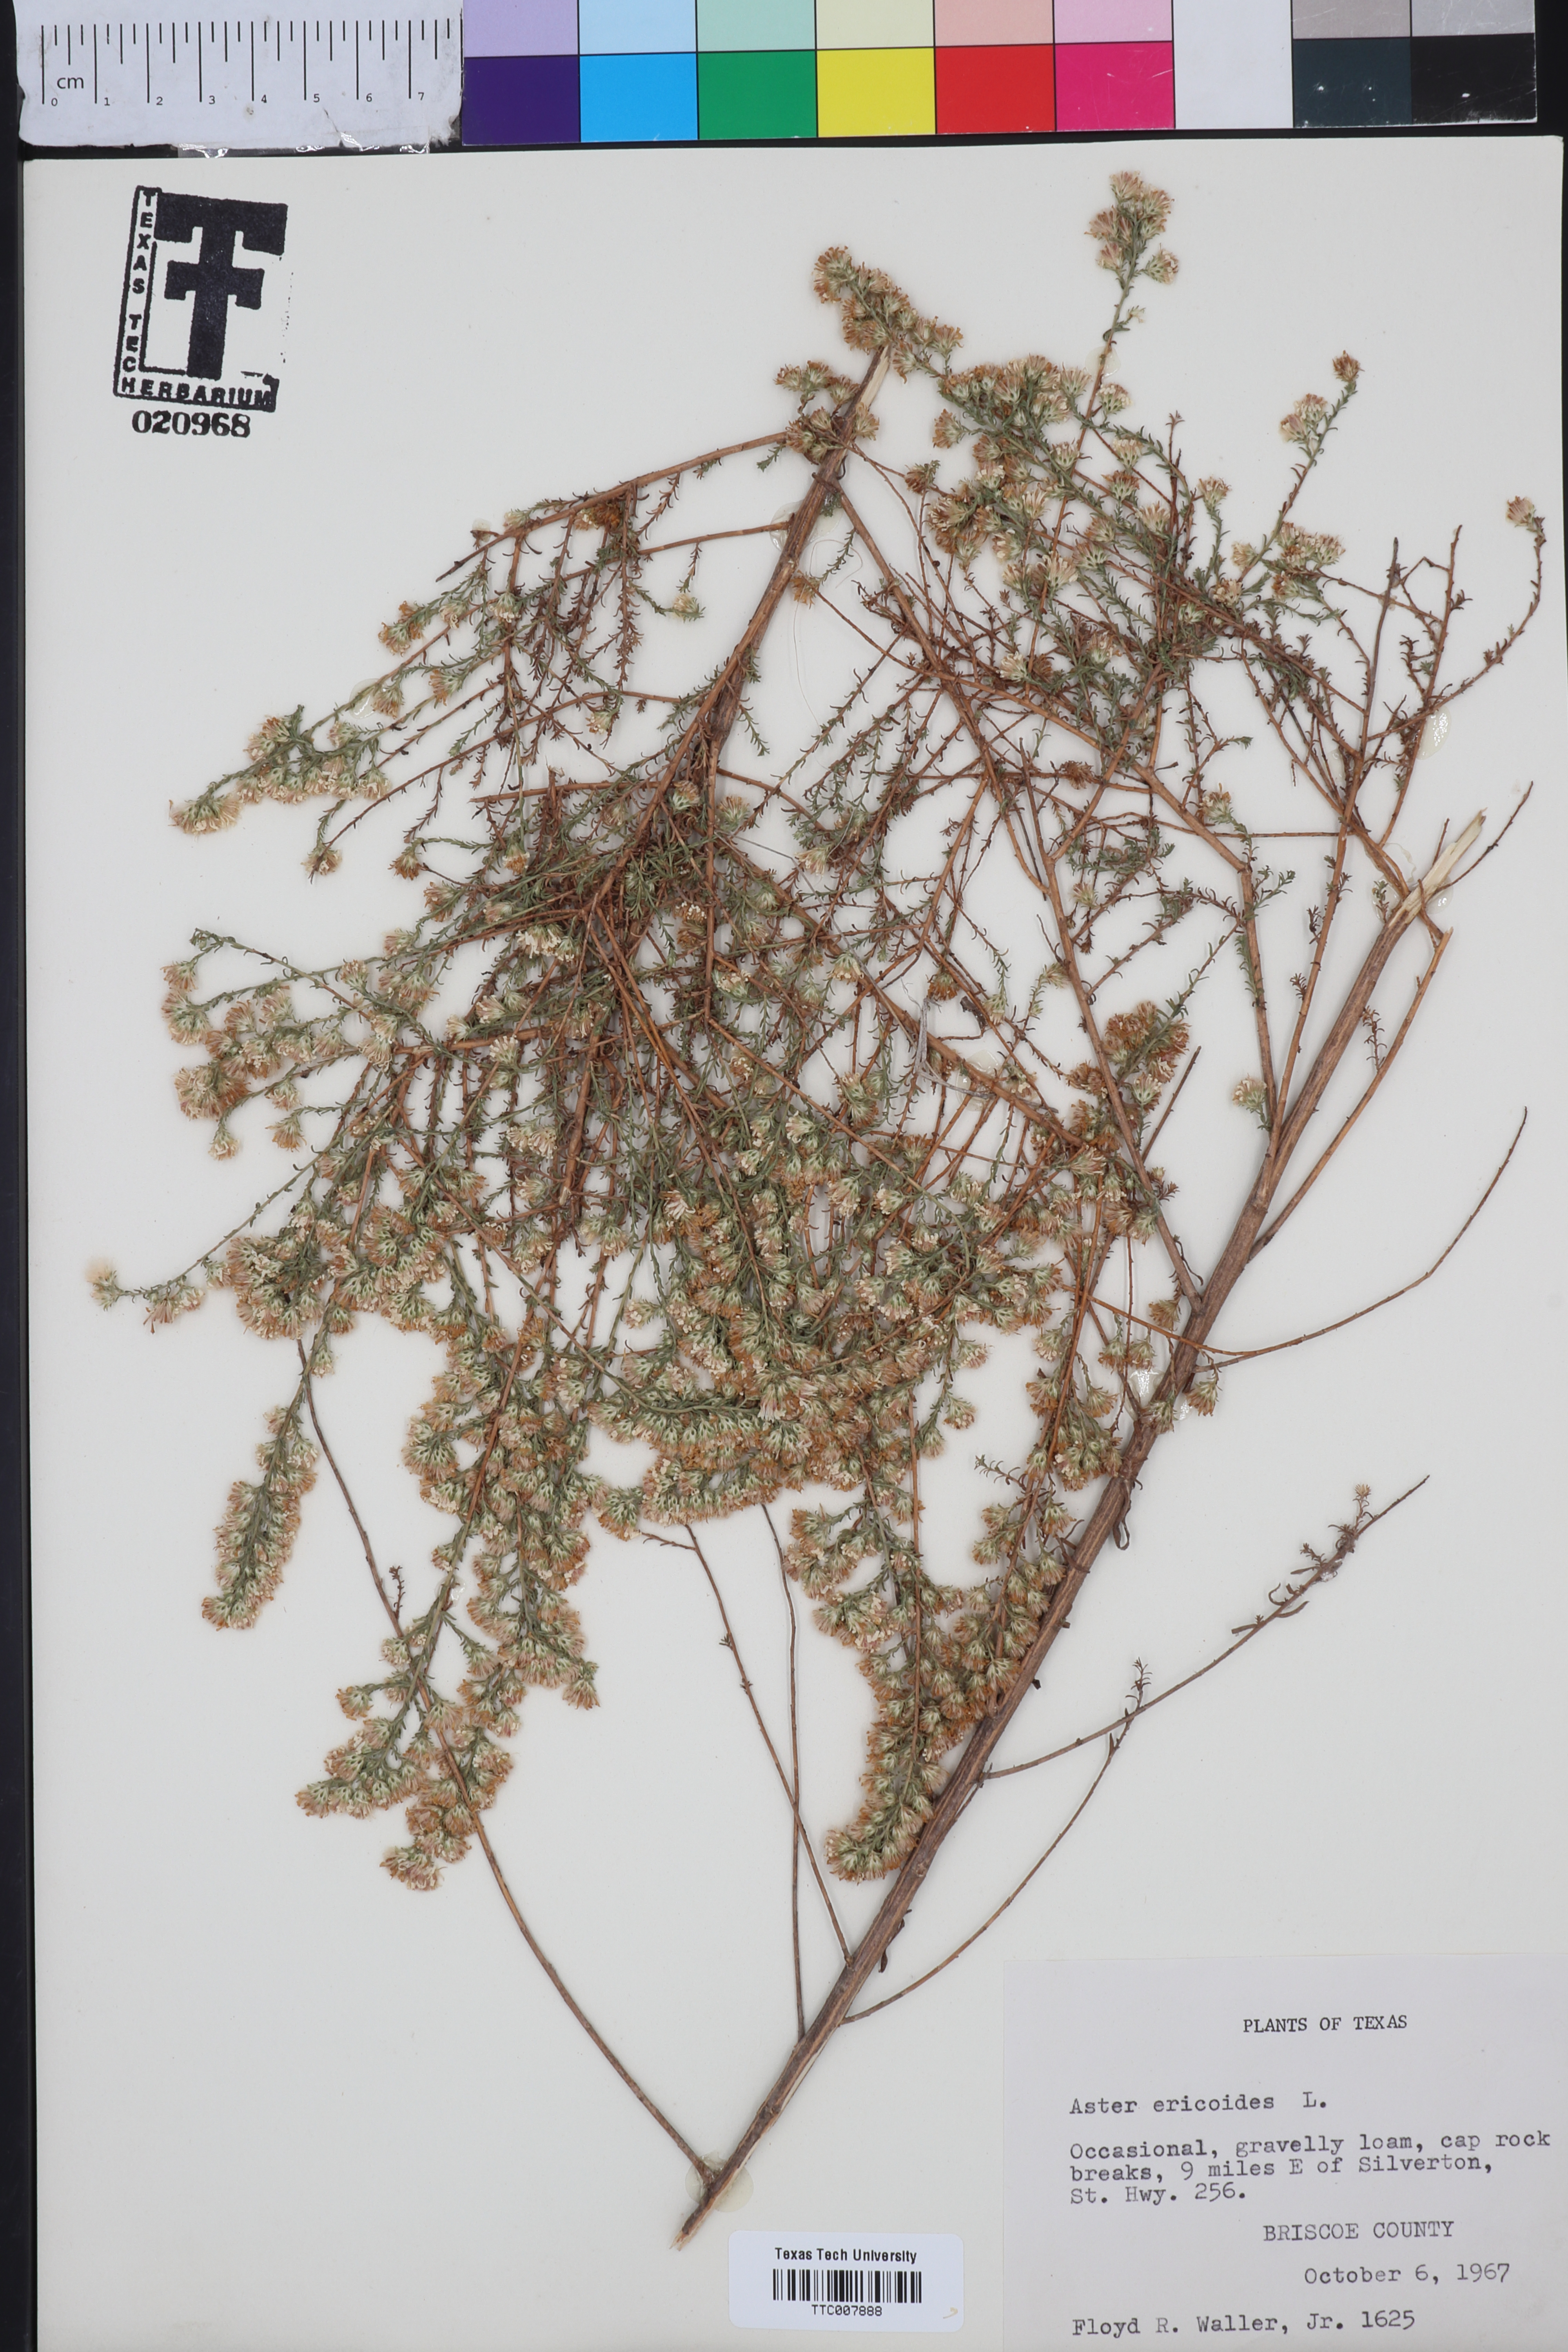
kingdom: Plantae
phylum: Tracheophyta
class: Magnoliopsida
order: Asterales
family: Asteraceae
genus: Symphyotrichum
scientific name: Symphyotrichum ericoides
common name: Heath aster
